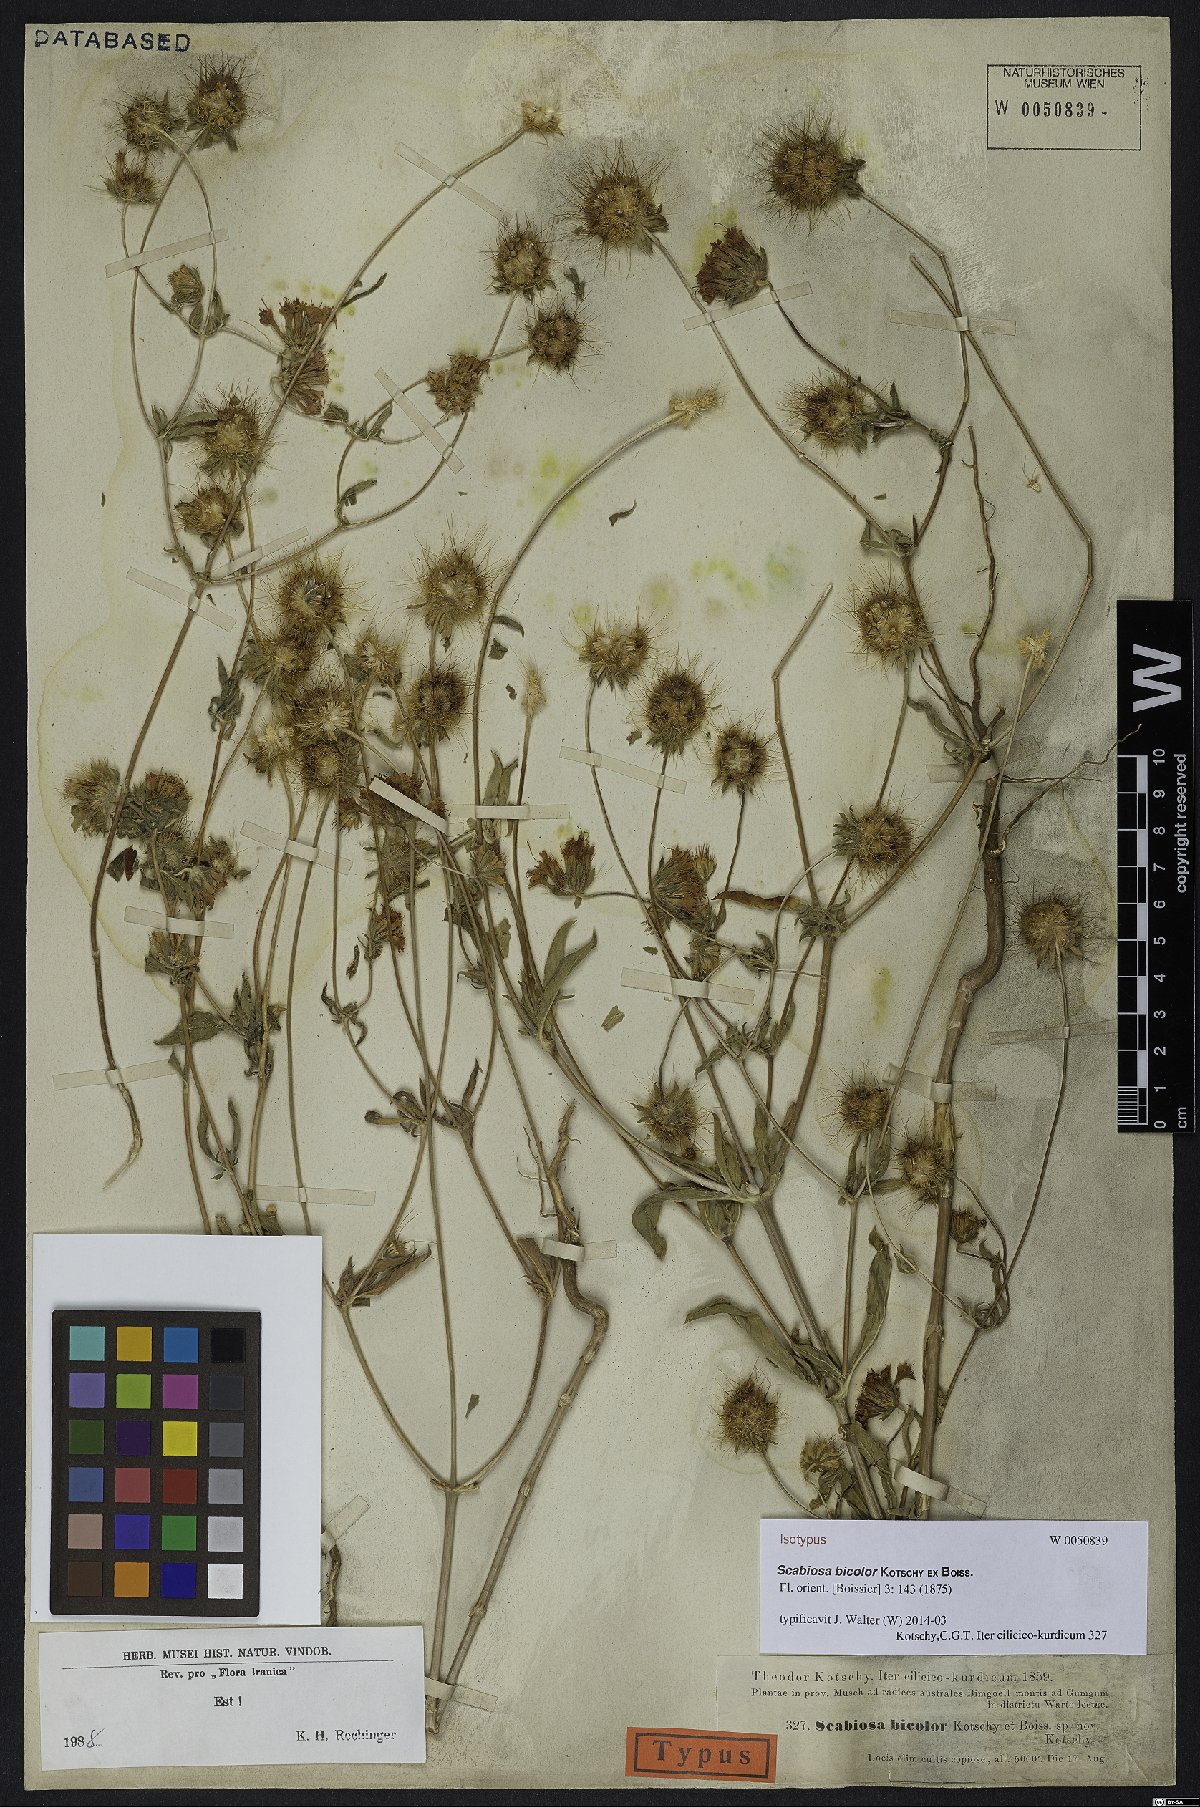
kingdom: Plantae
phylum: Tracheophyta
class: Magnoliopsida
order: Dipsacales
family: Caprifoliaceae
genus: Lomelosia
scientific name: Lomelosia bicolor
